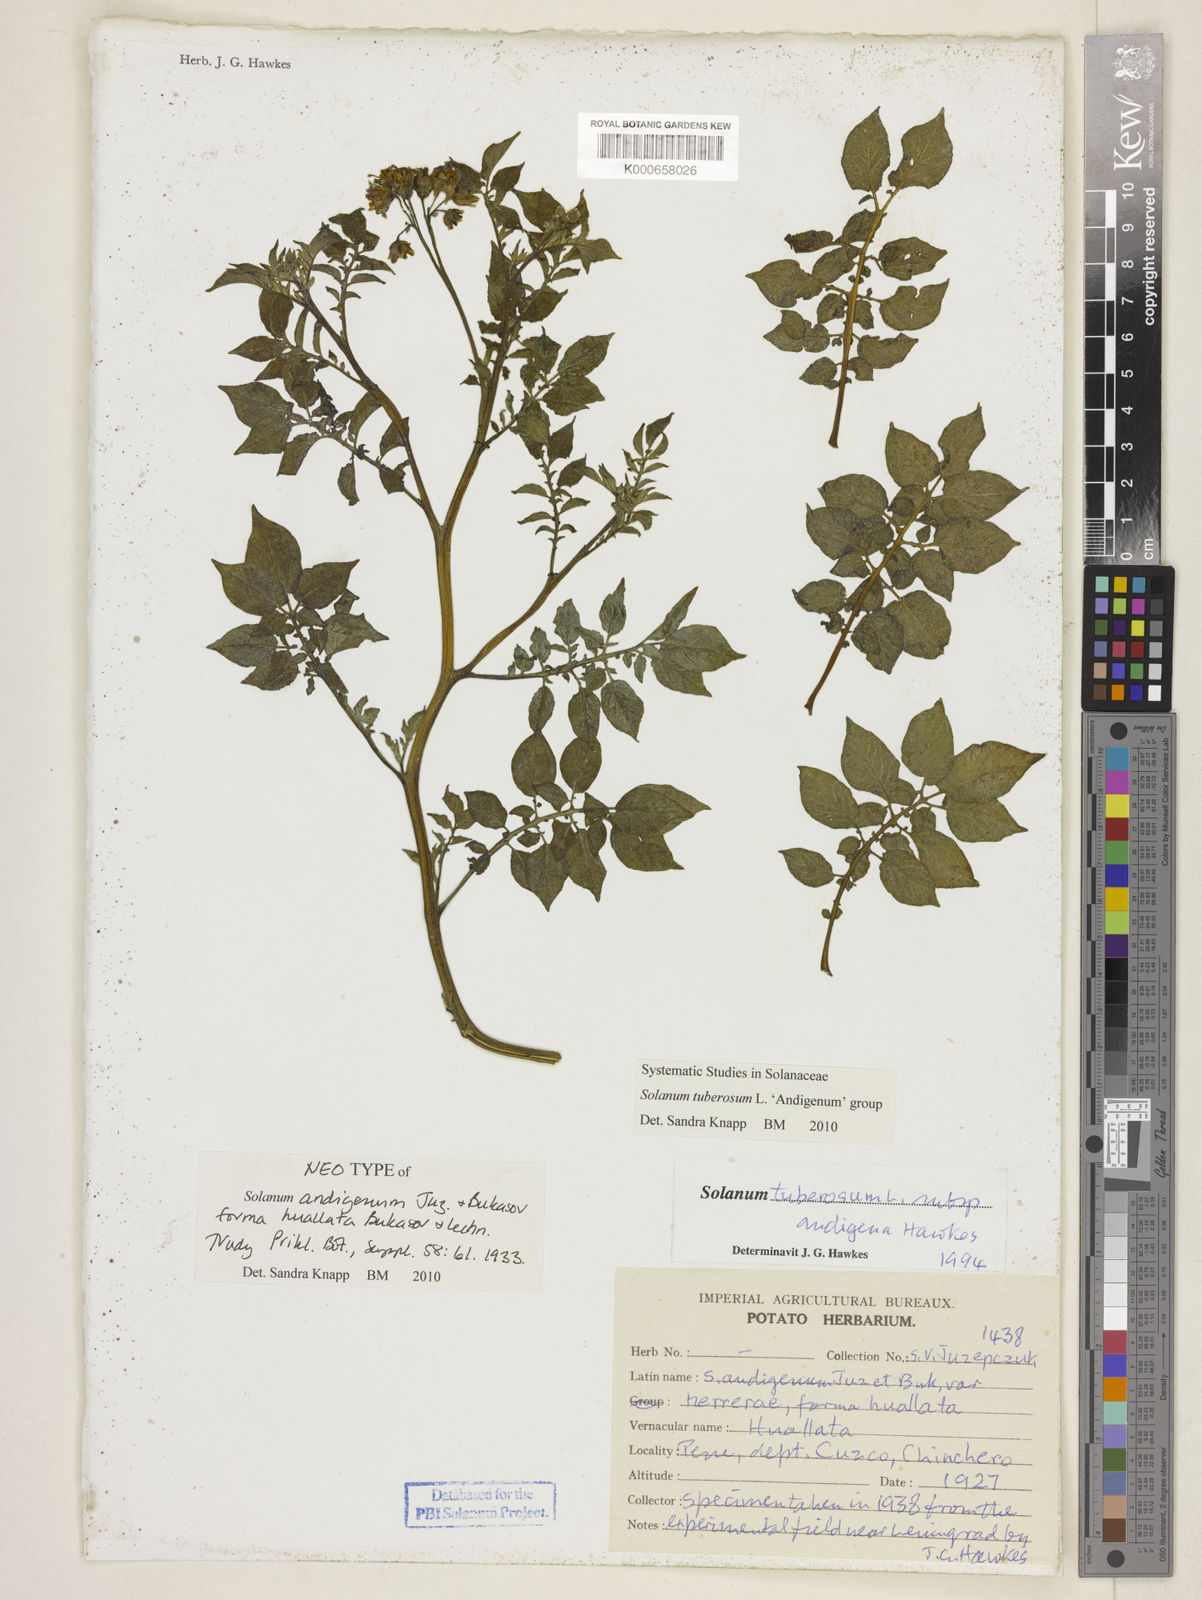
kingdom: Plantae
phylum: Tracheophyta
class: Magnoliopsida
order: Solanales
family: Solanaceae
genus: Solanum
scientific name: Solanum tuberosum
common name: Potato
